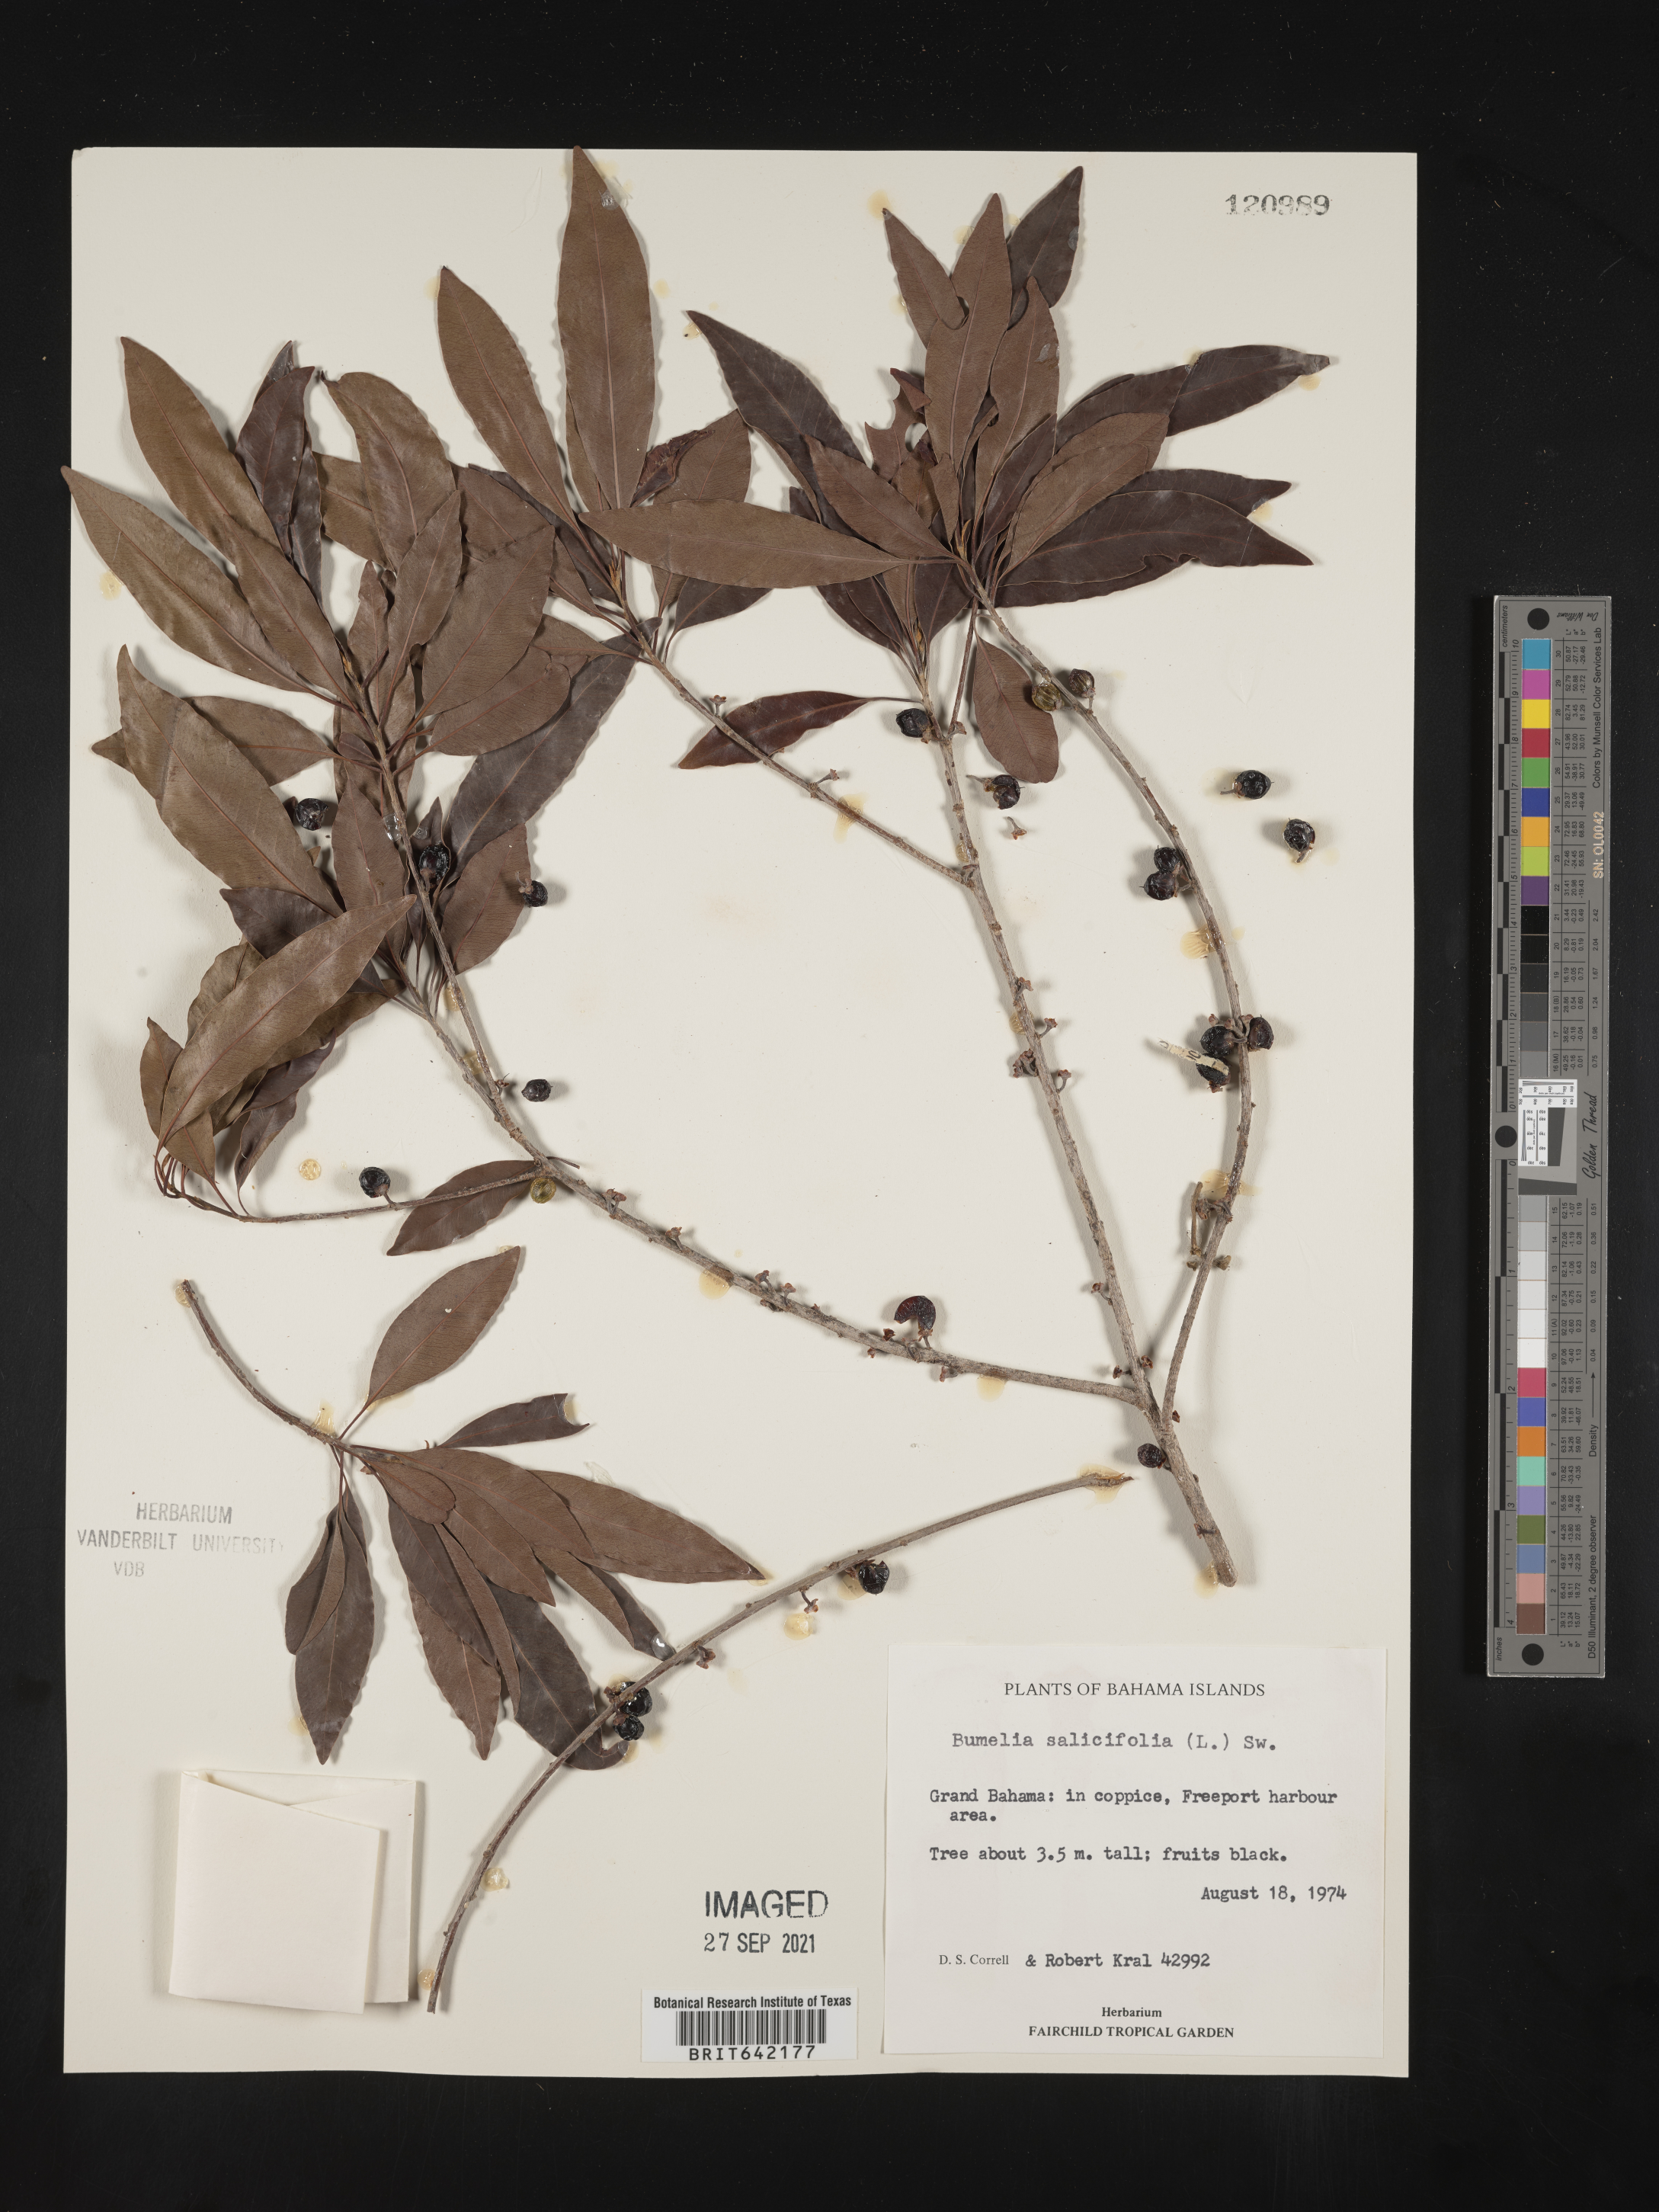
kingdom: Plantae
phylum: Tracheophyta
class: Magnoliopsida
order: Ericales
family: Sapotaceae
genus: Sideroxylon
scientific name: Sideroxylon
